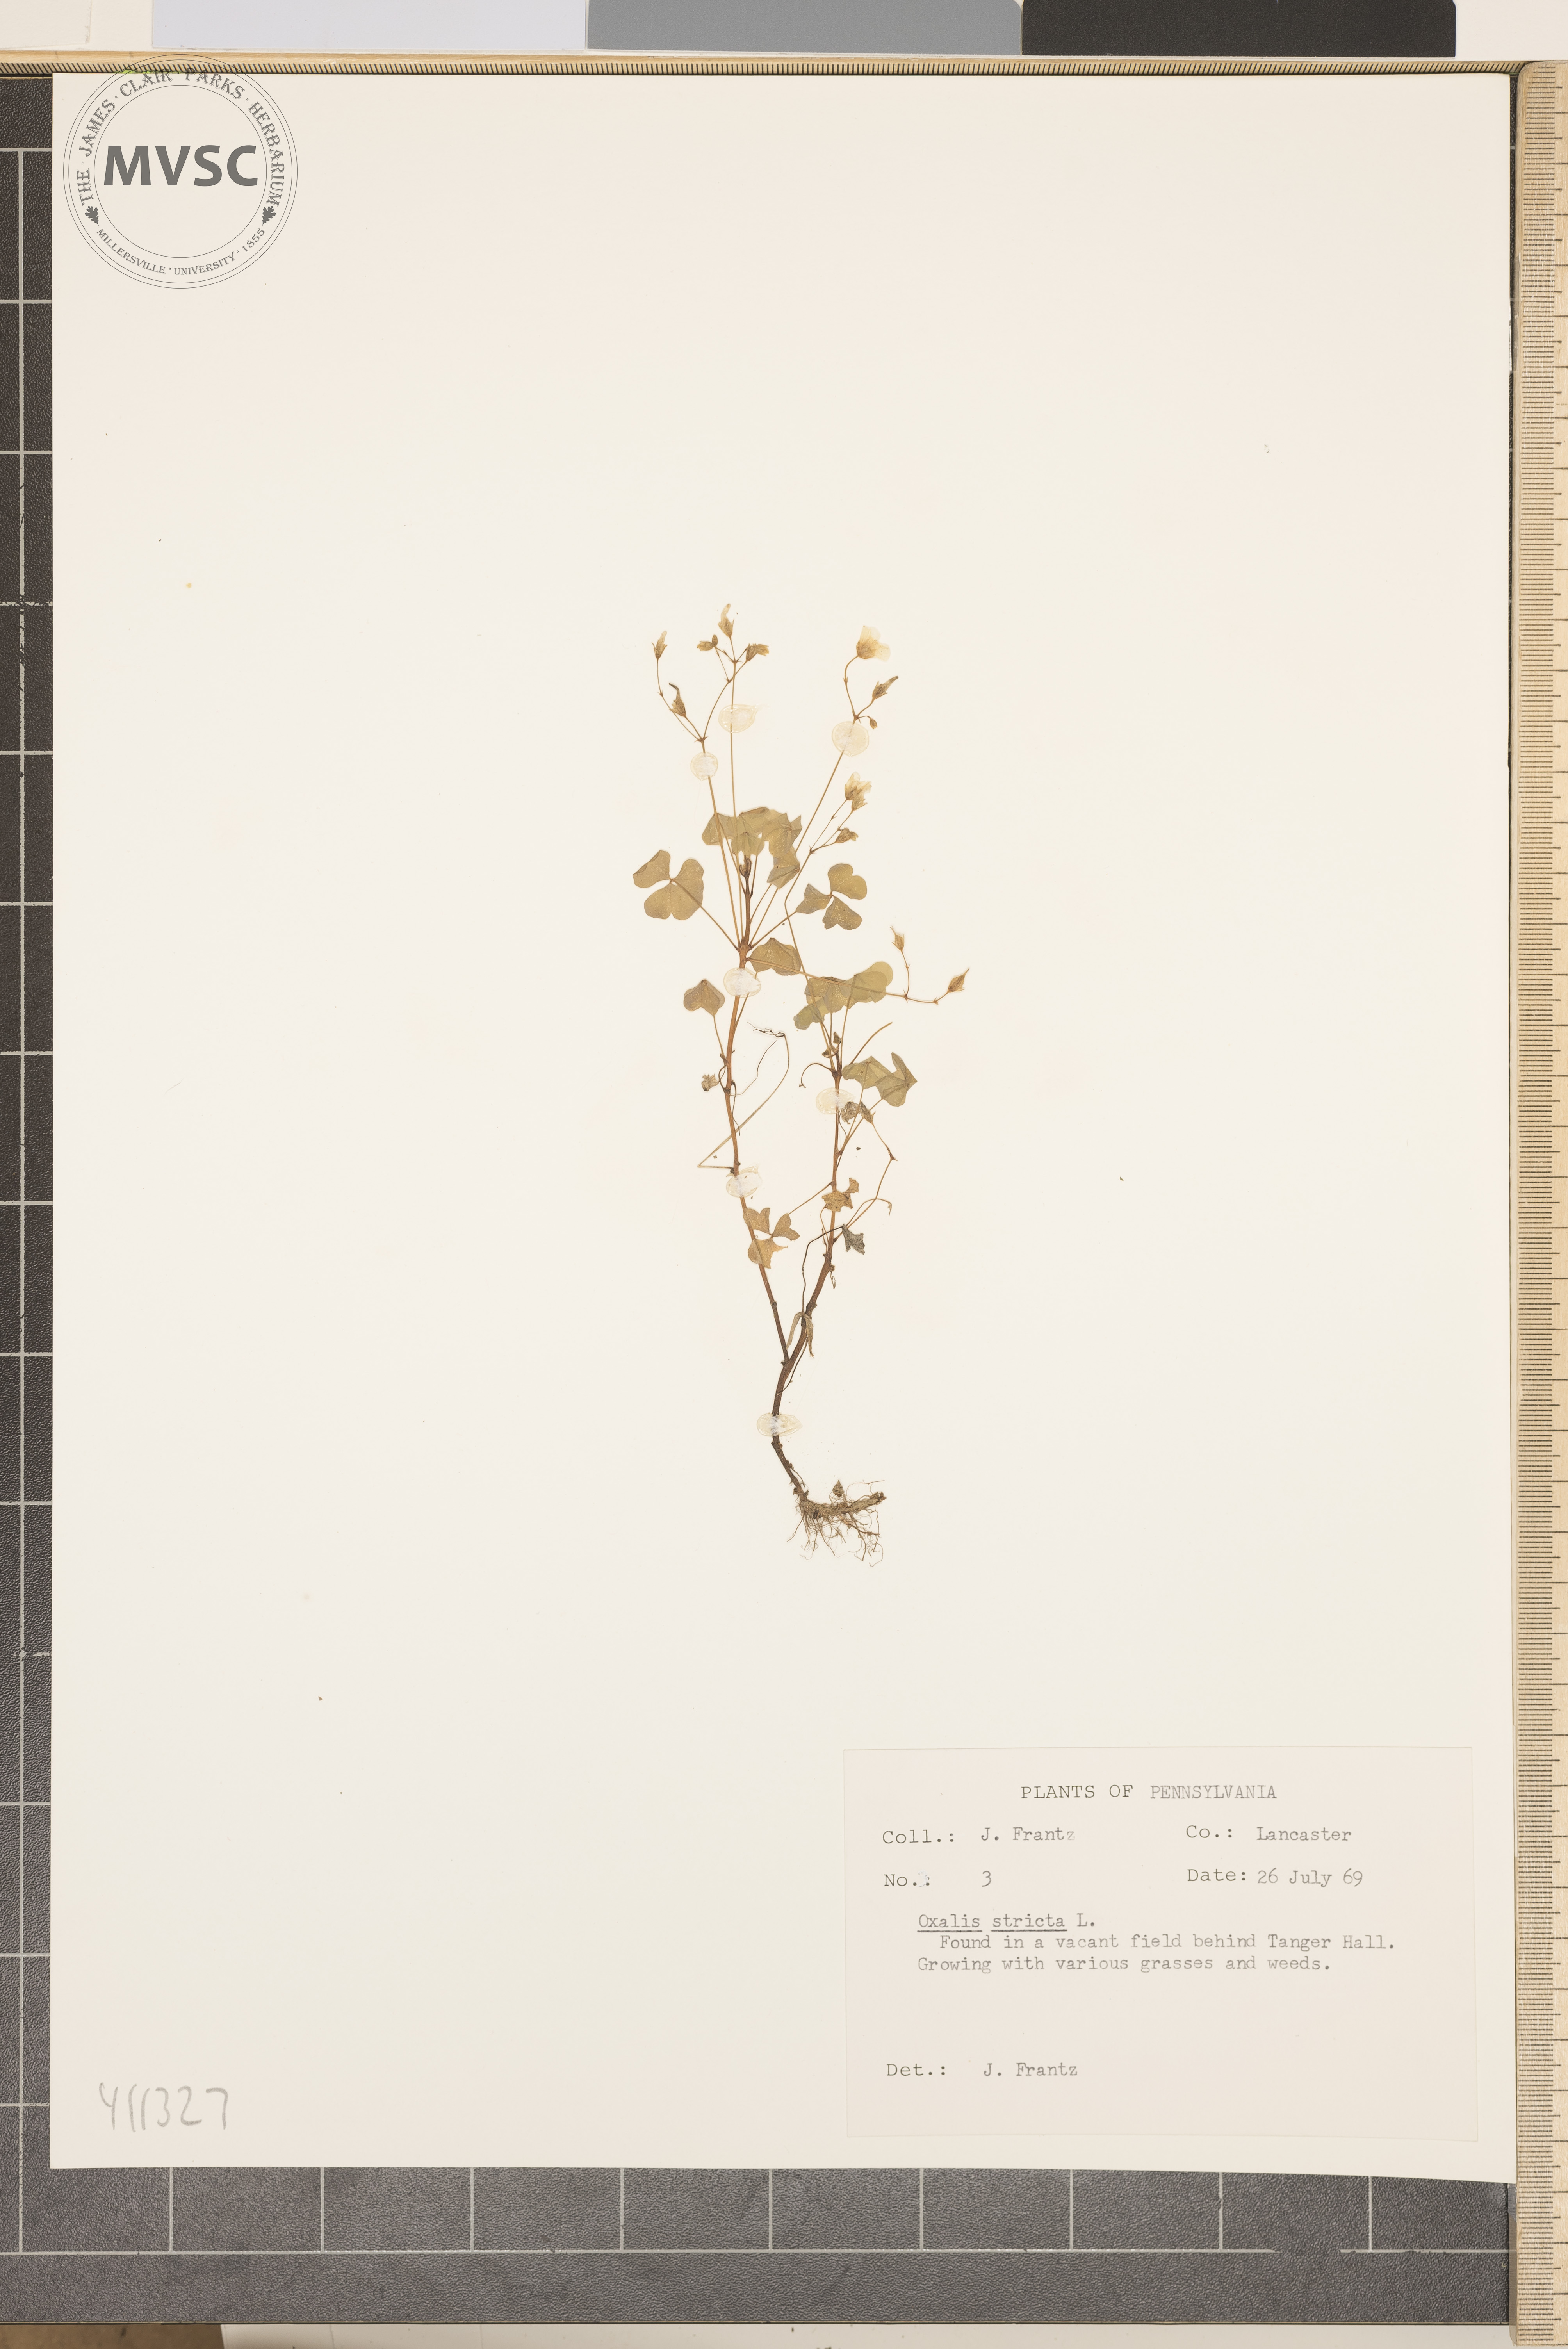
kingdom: Plantae
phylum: Tracheophyta
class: Magnoliopsida
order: Oxalidales
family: Oxalidaceae
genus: Oxalis
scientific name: Oxalis stricta
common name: Common yellow wood-sorrel
